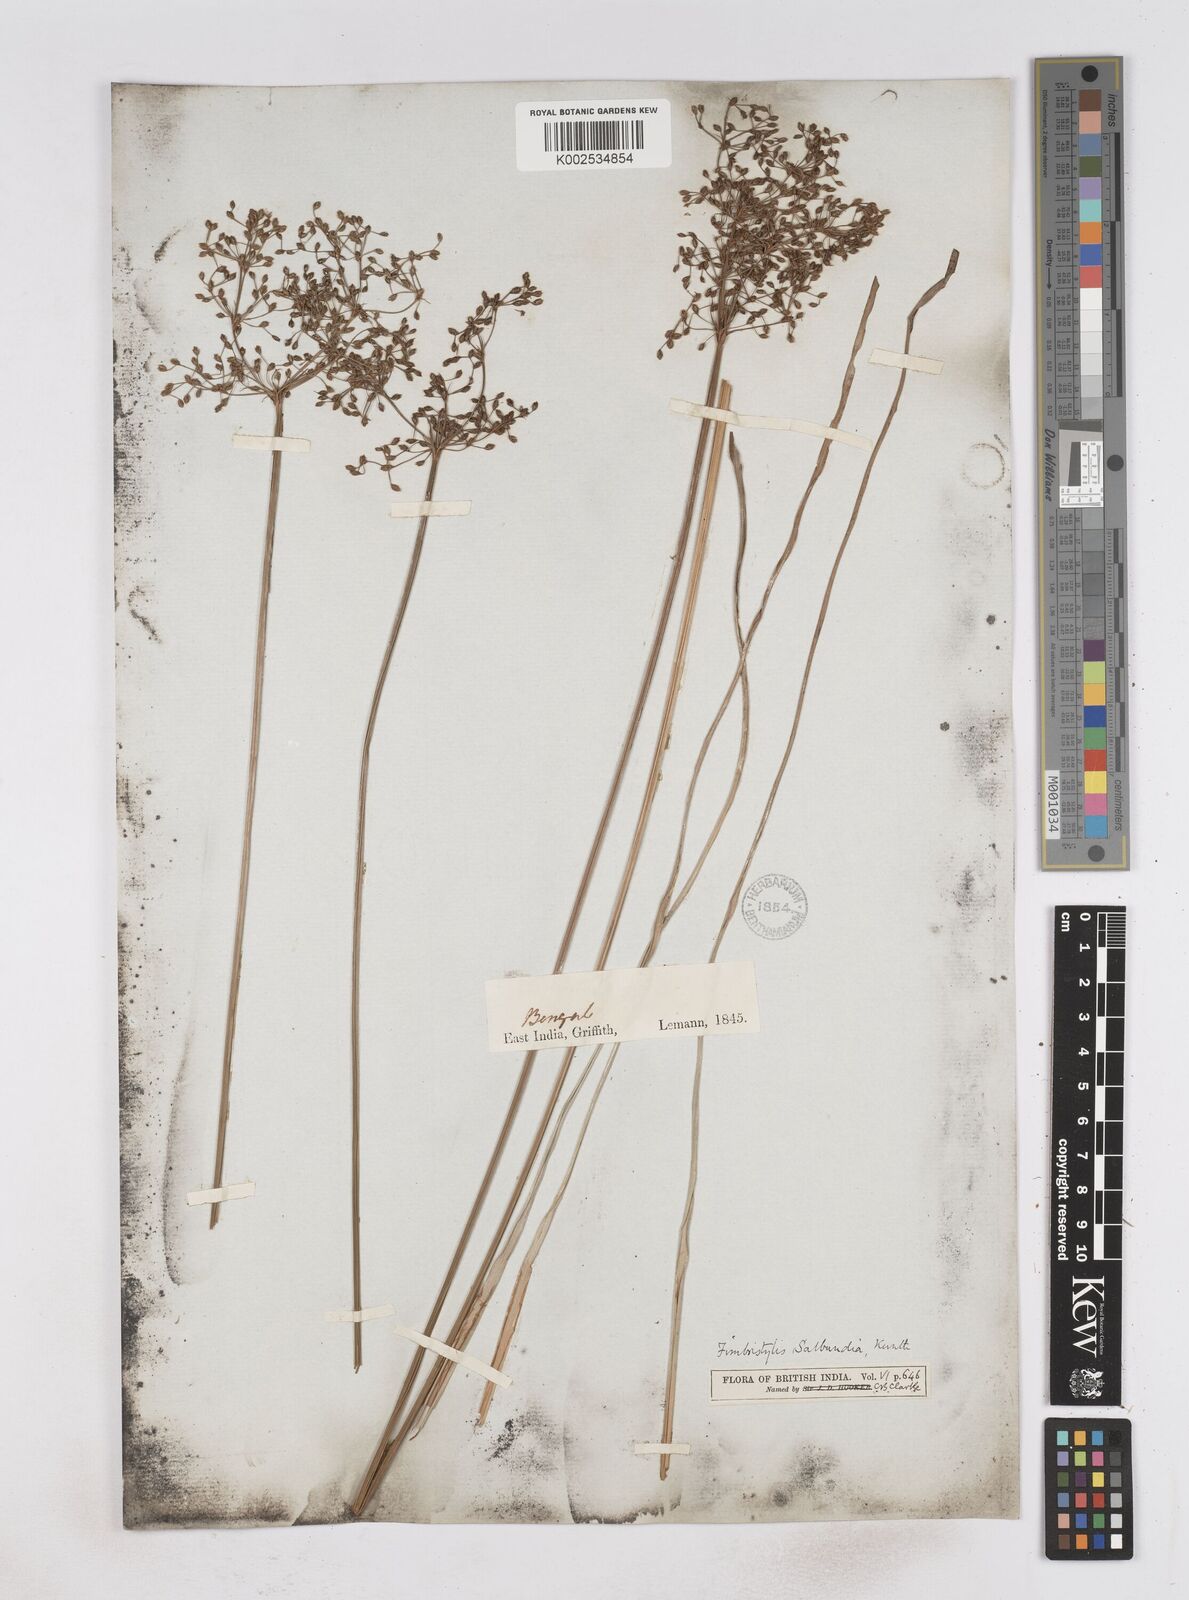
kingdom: Plantae
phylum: Tracheophyta
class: Liliopsida
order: Poales
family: Cyperaceae
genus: Fimbristylis
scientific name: Fimbristylis salbundia
